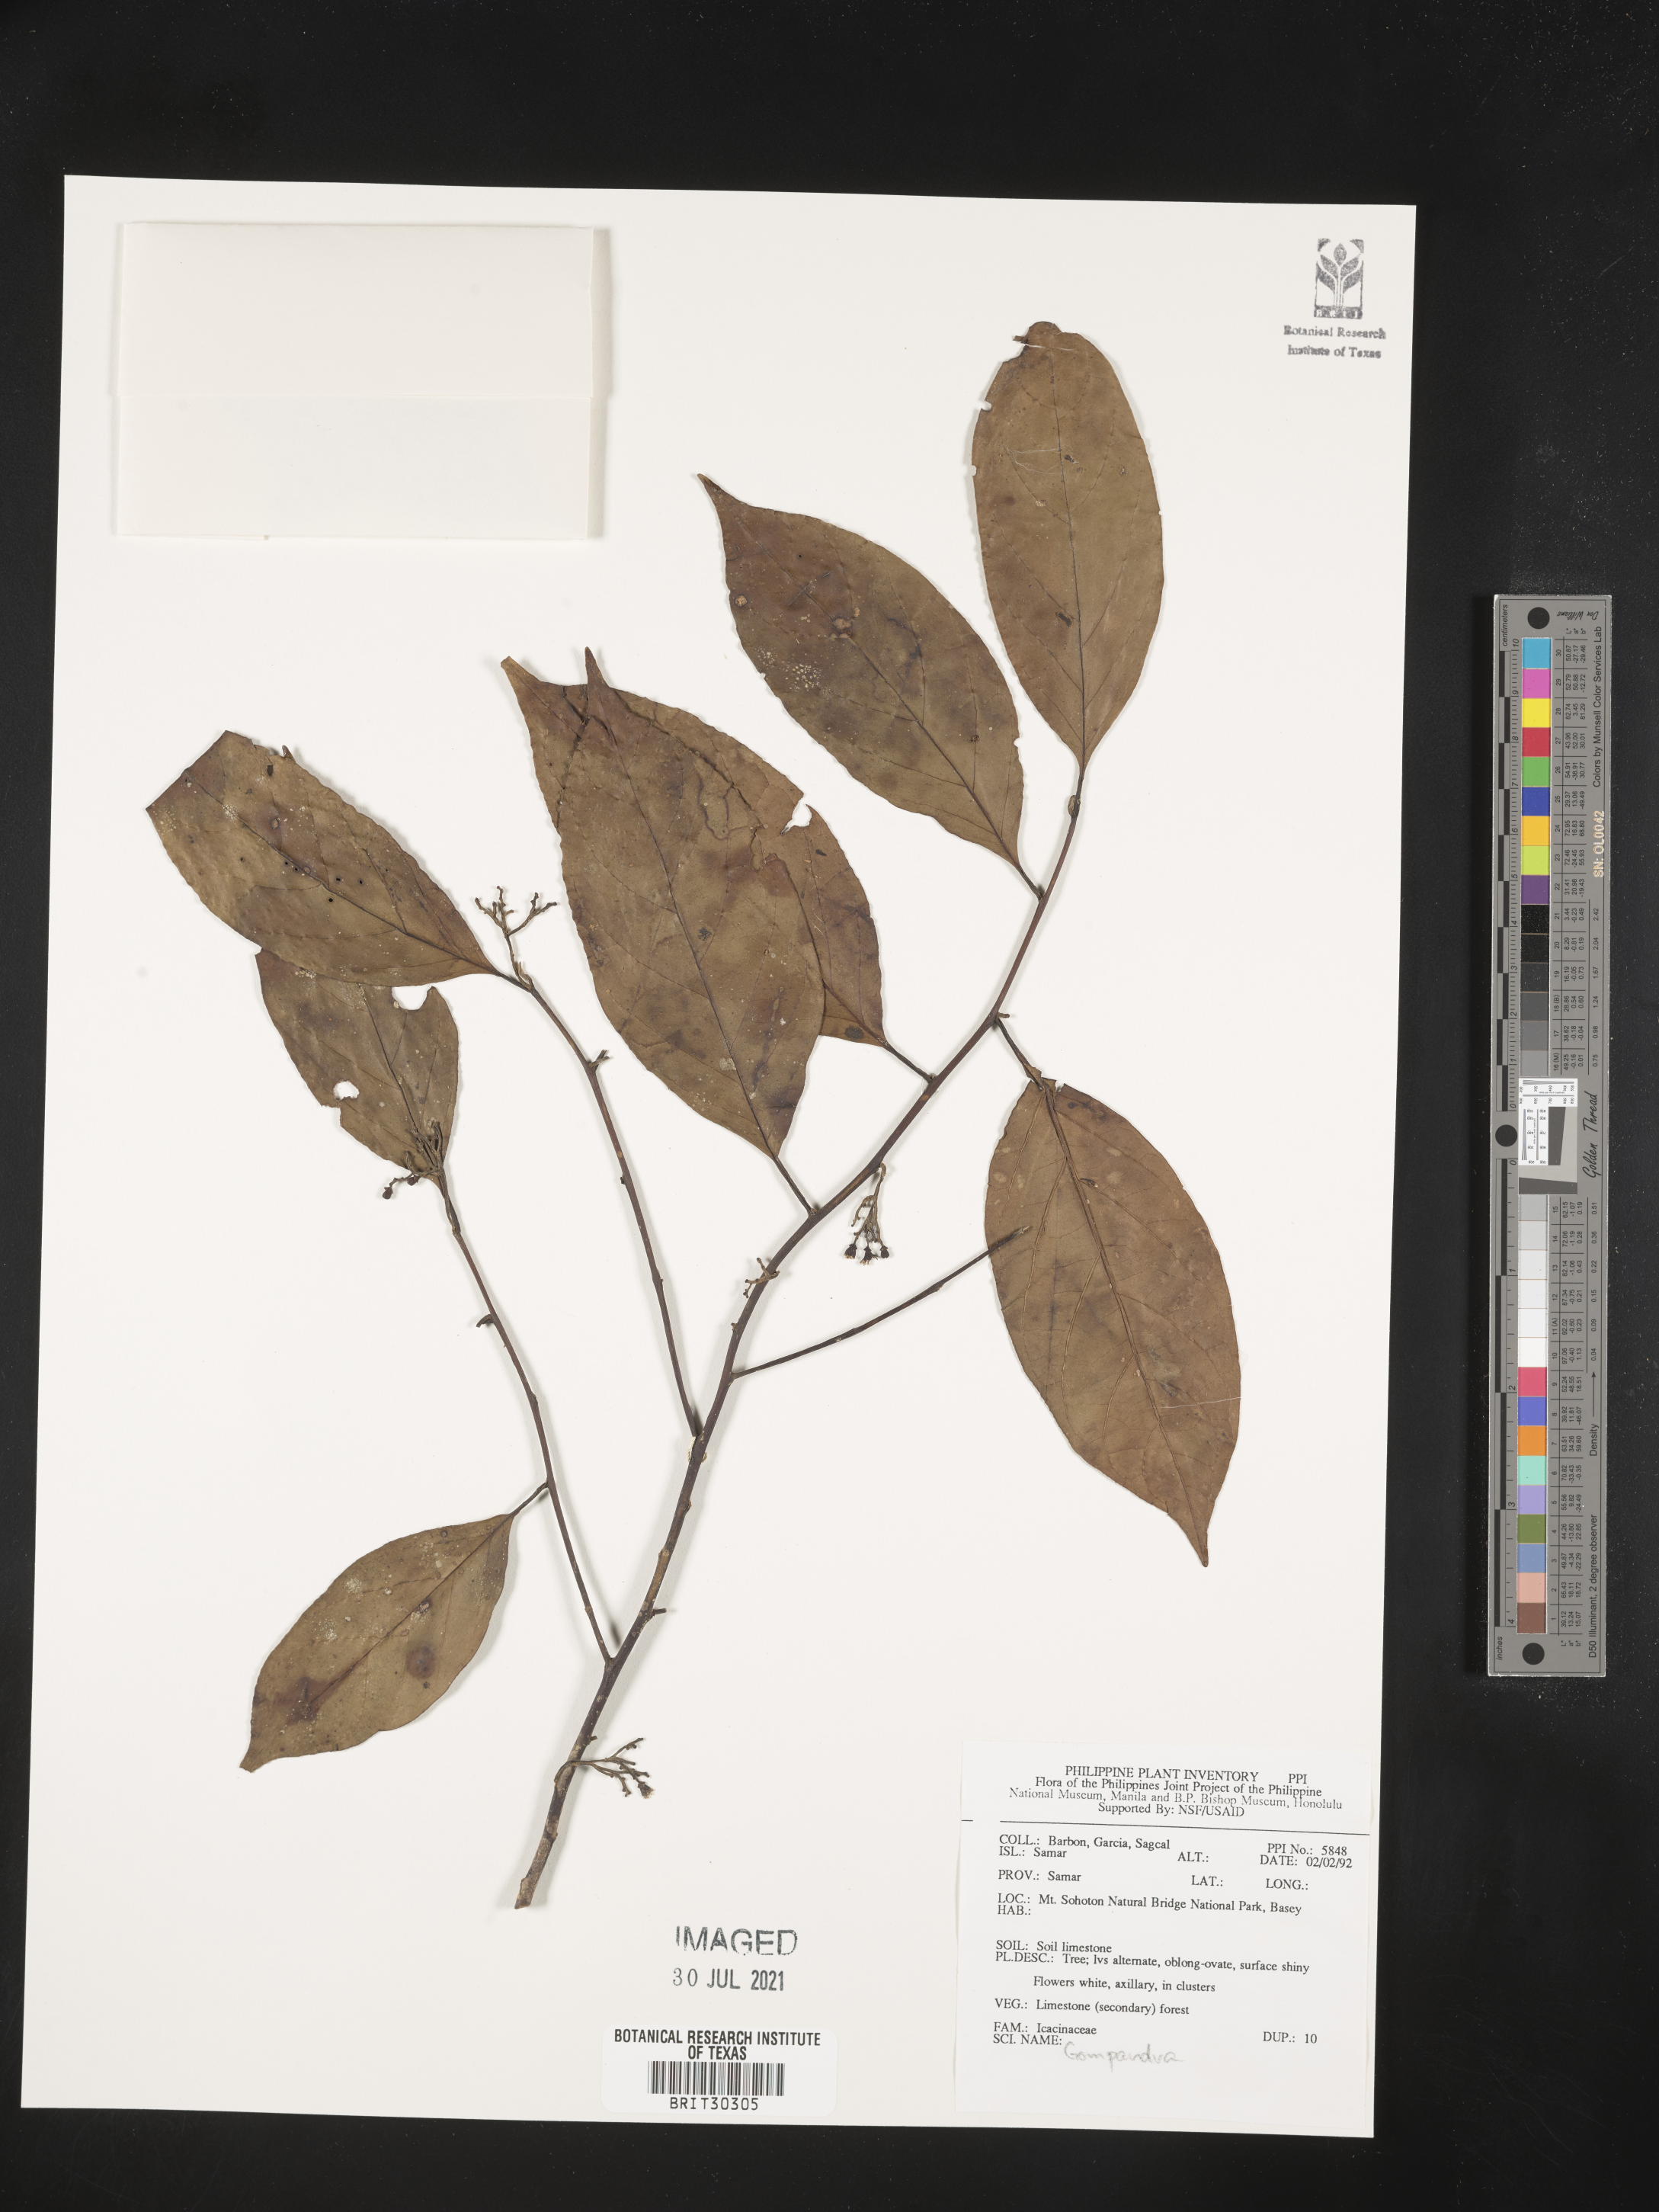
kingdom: Plantae
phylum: Tracheophyta
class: Magnoliopsida
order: Cardiopteridales
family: Stemonuraceae
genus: Gomphandra
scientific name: Gomphandra
